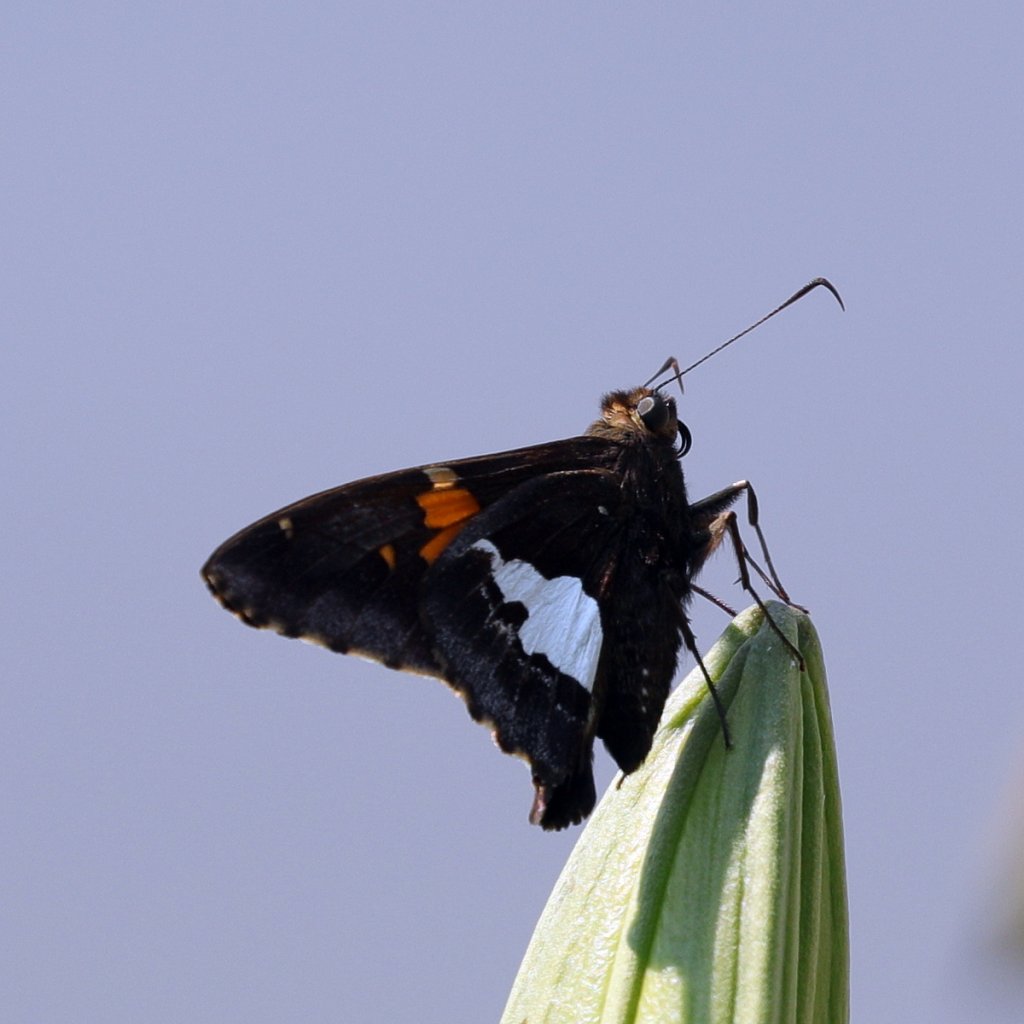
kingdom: Animalia
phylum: Arthropoda
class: Insecta
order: Lepidoptera
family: Hesperiidae
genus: Epargyreus
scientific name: Epargyreus clarus
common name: Silver-spotted Skipper
